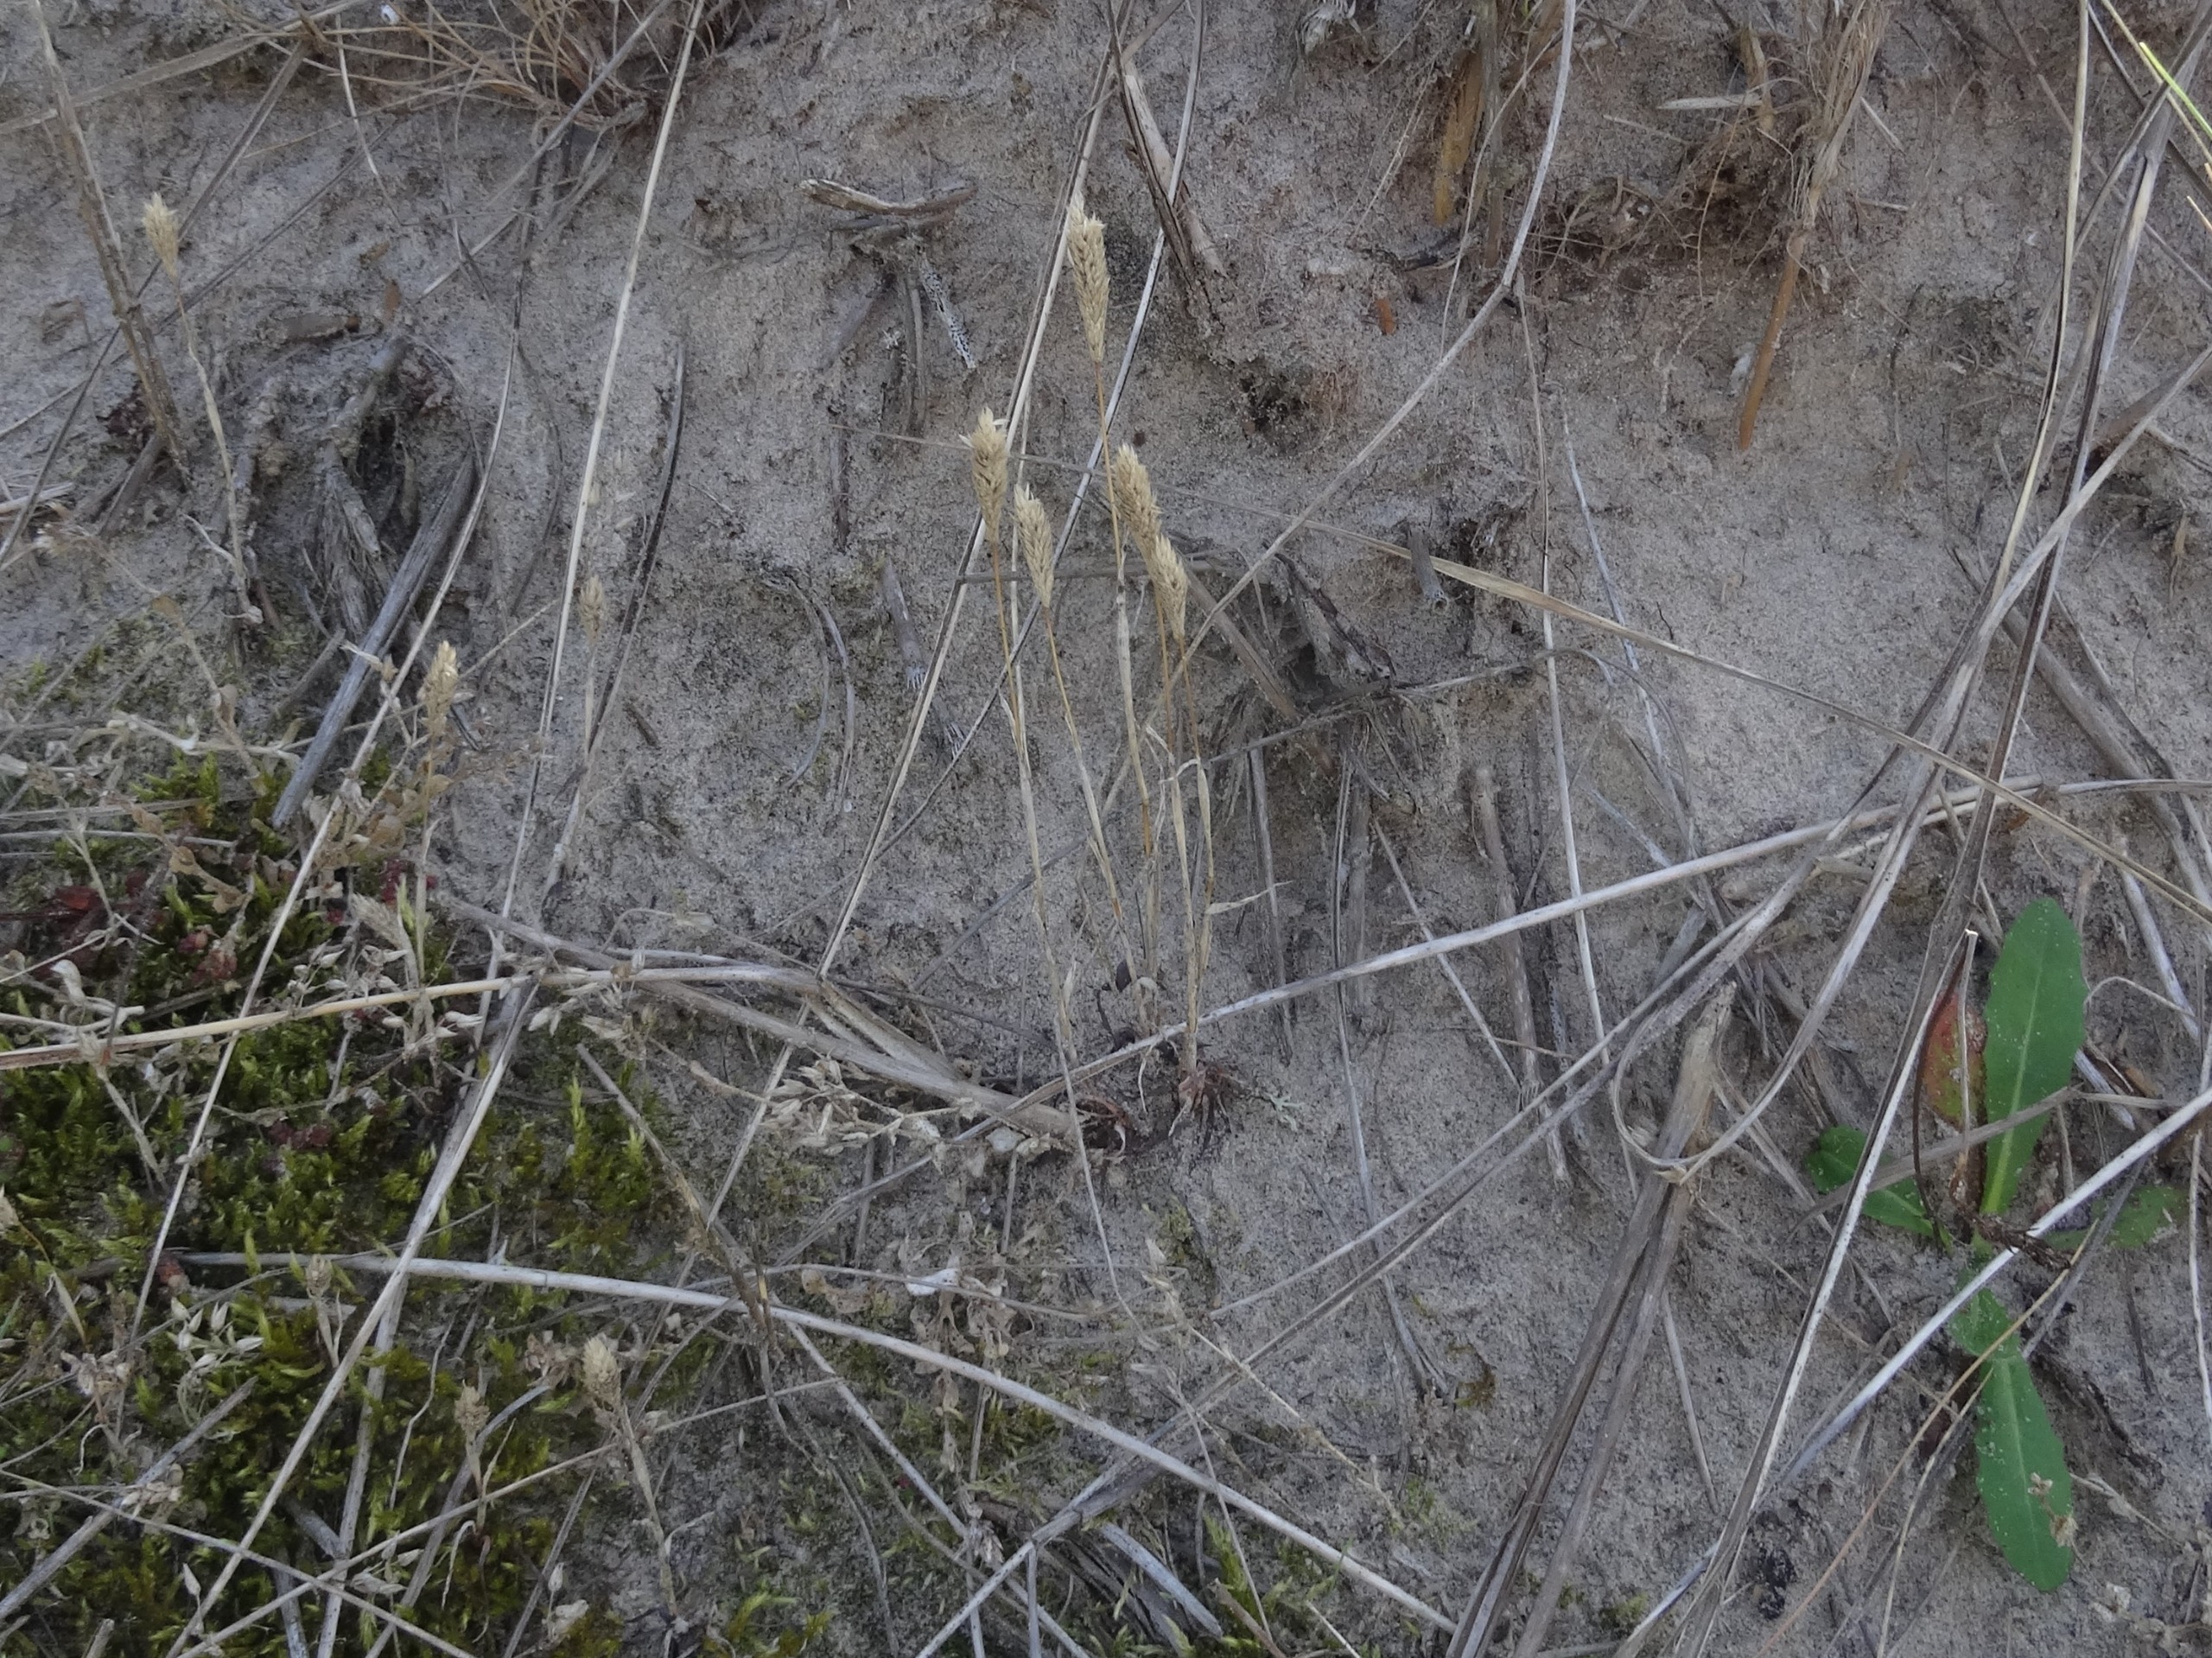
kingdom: Plantae
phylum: Tracheophyta
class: Liliopsida
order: Poales
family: Poaceae
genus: Phleum
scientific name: Phleum arenarium
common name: Sand-rottehale
